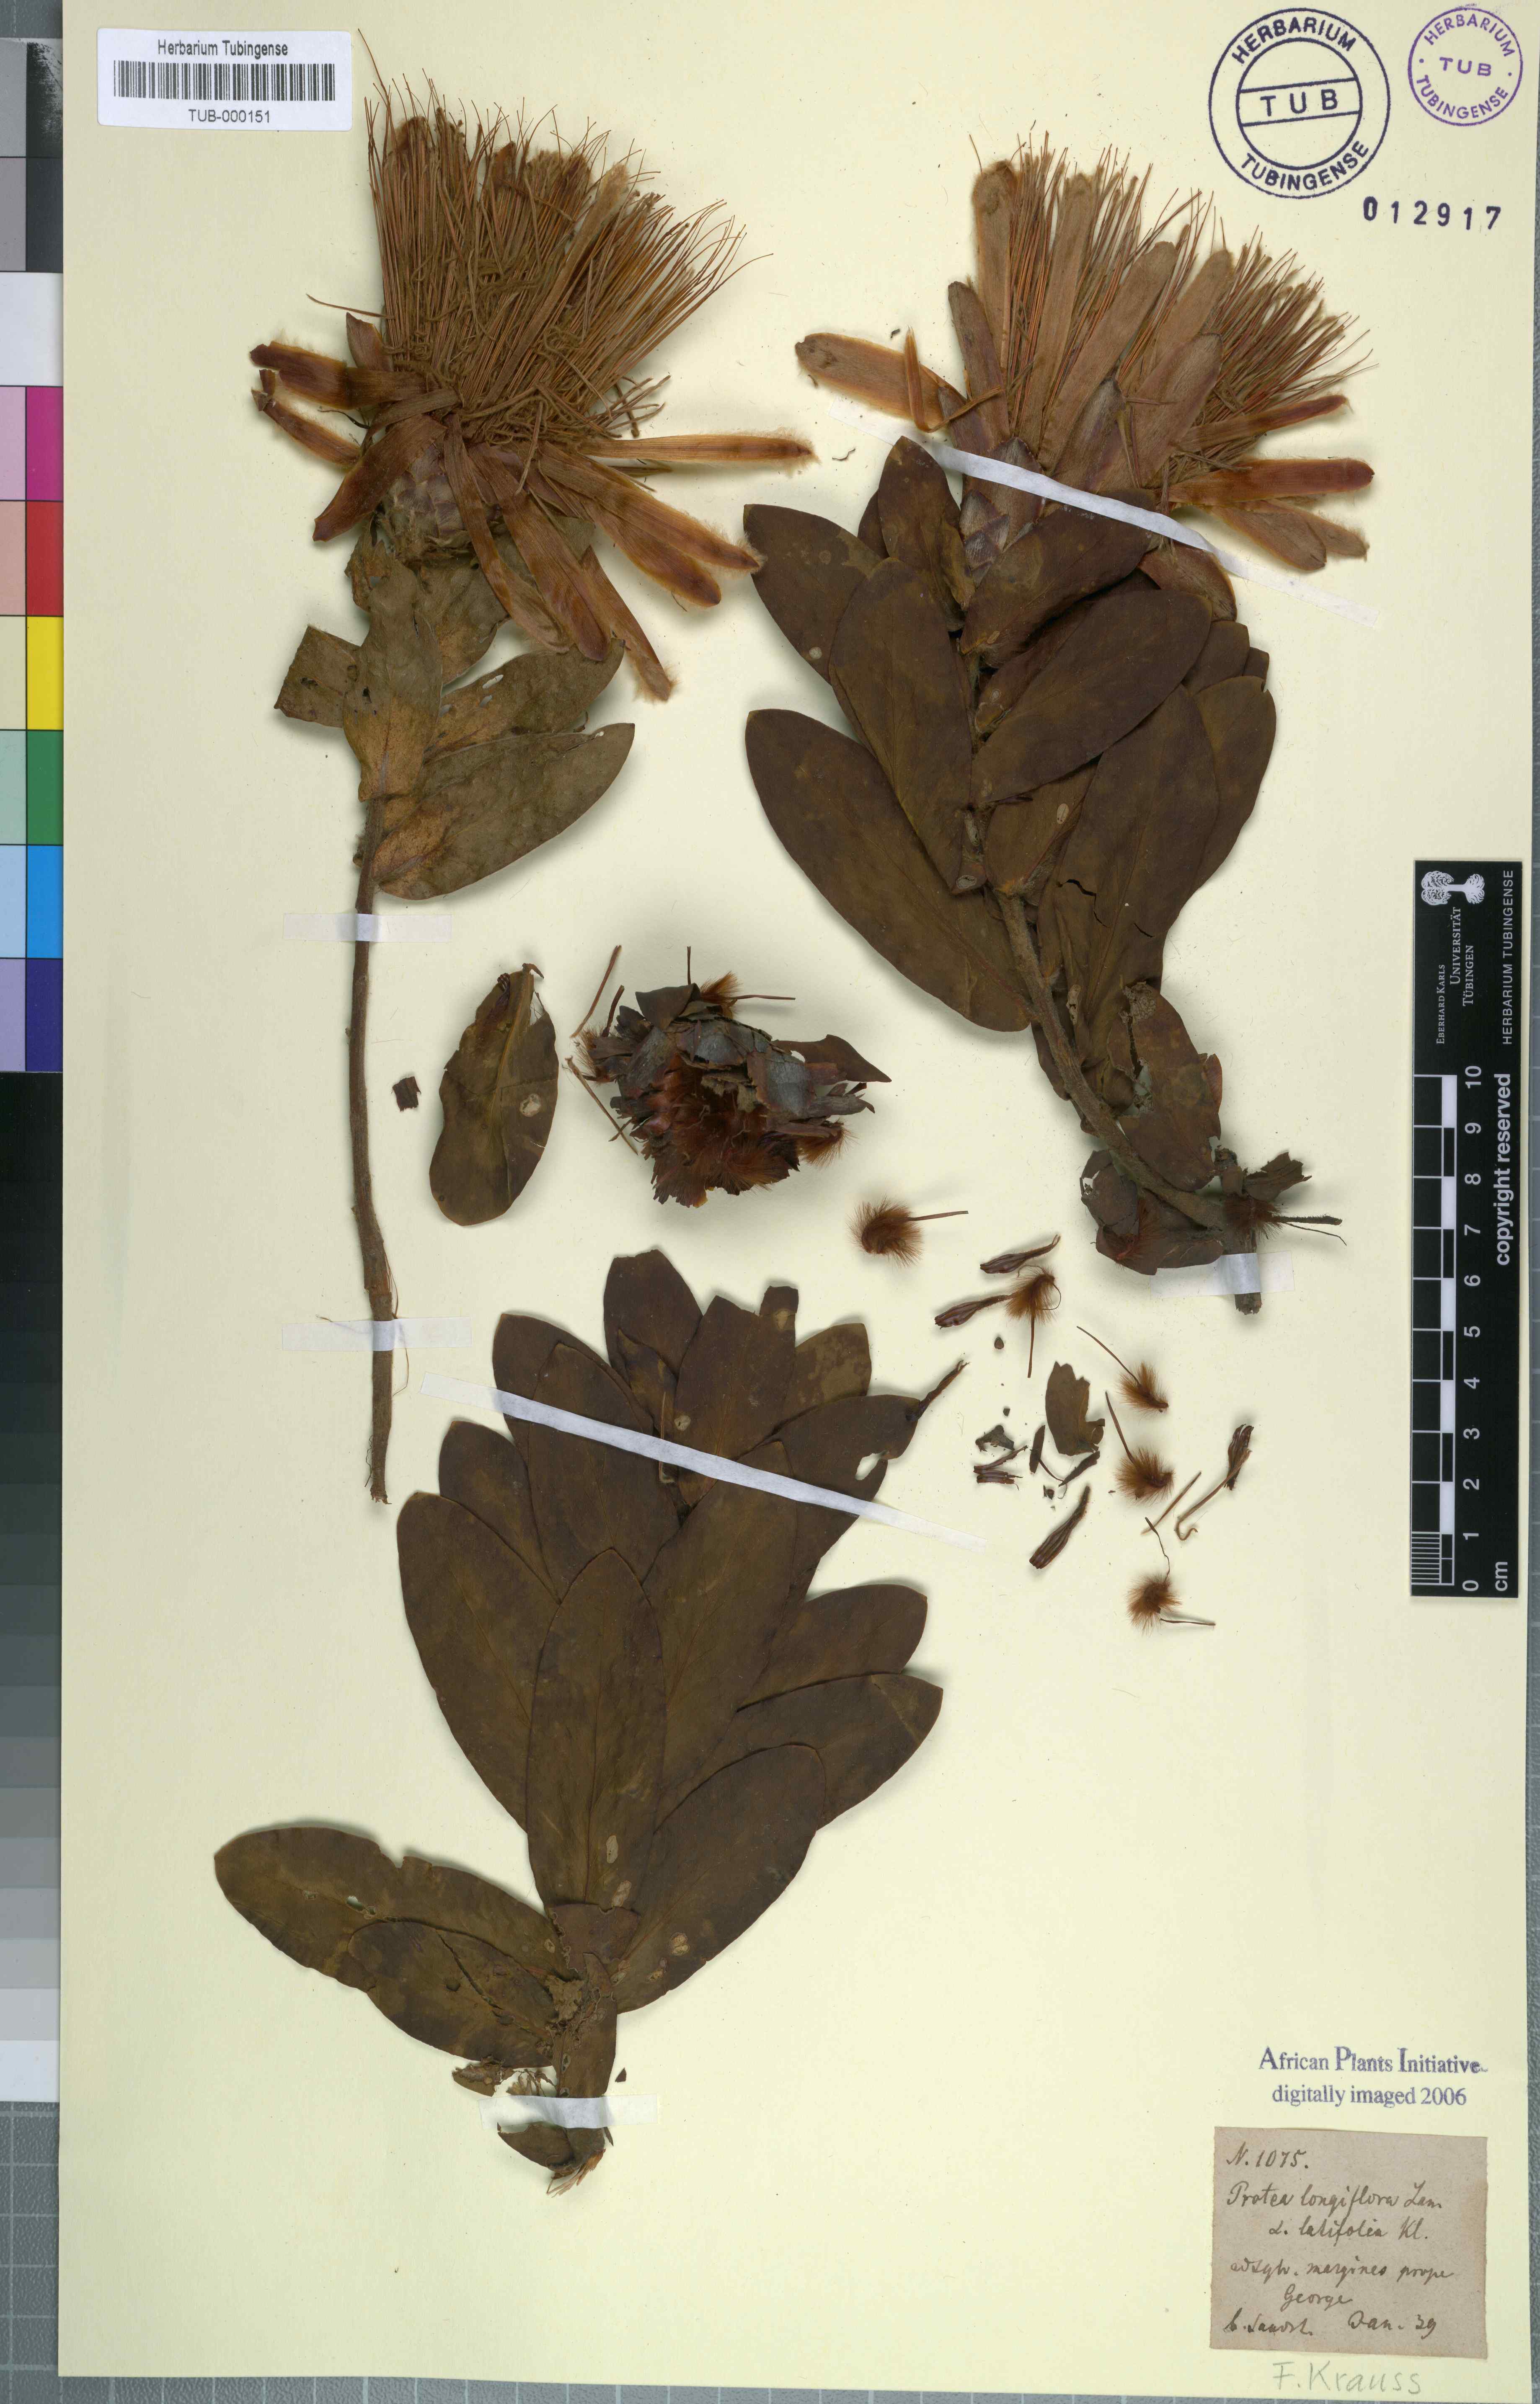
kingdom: Plantae
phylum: Tracheophyta
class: Magnoliopsida
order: Proteales
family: Proteaceae
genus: Protea
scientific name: Protea aurea
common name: Shuttlecock sugarbush
